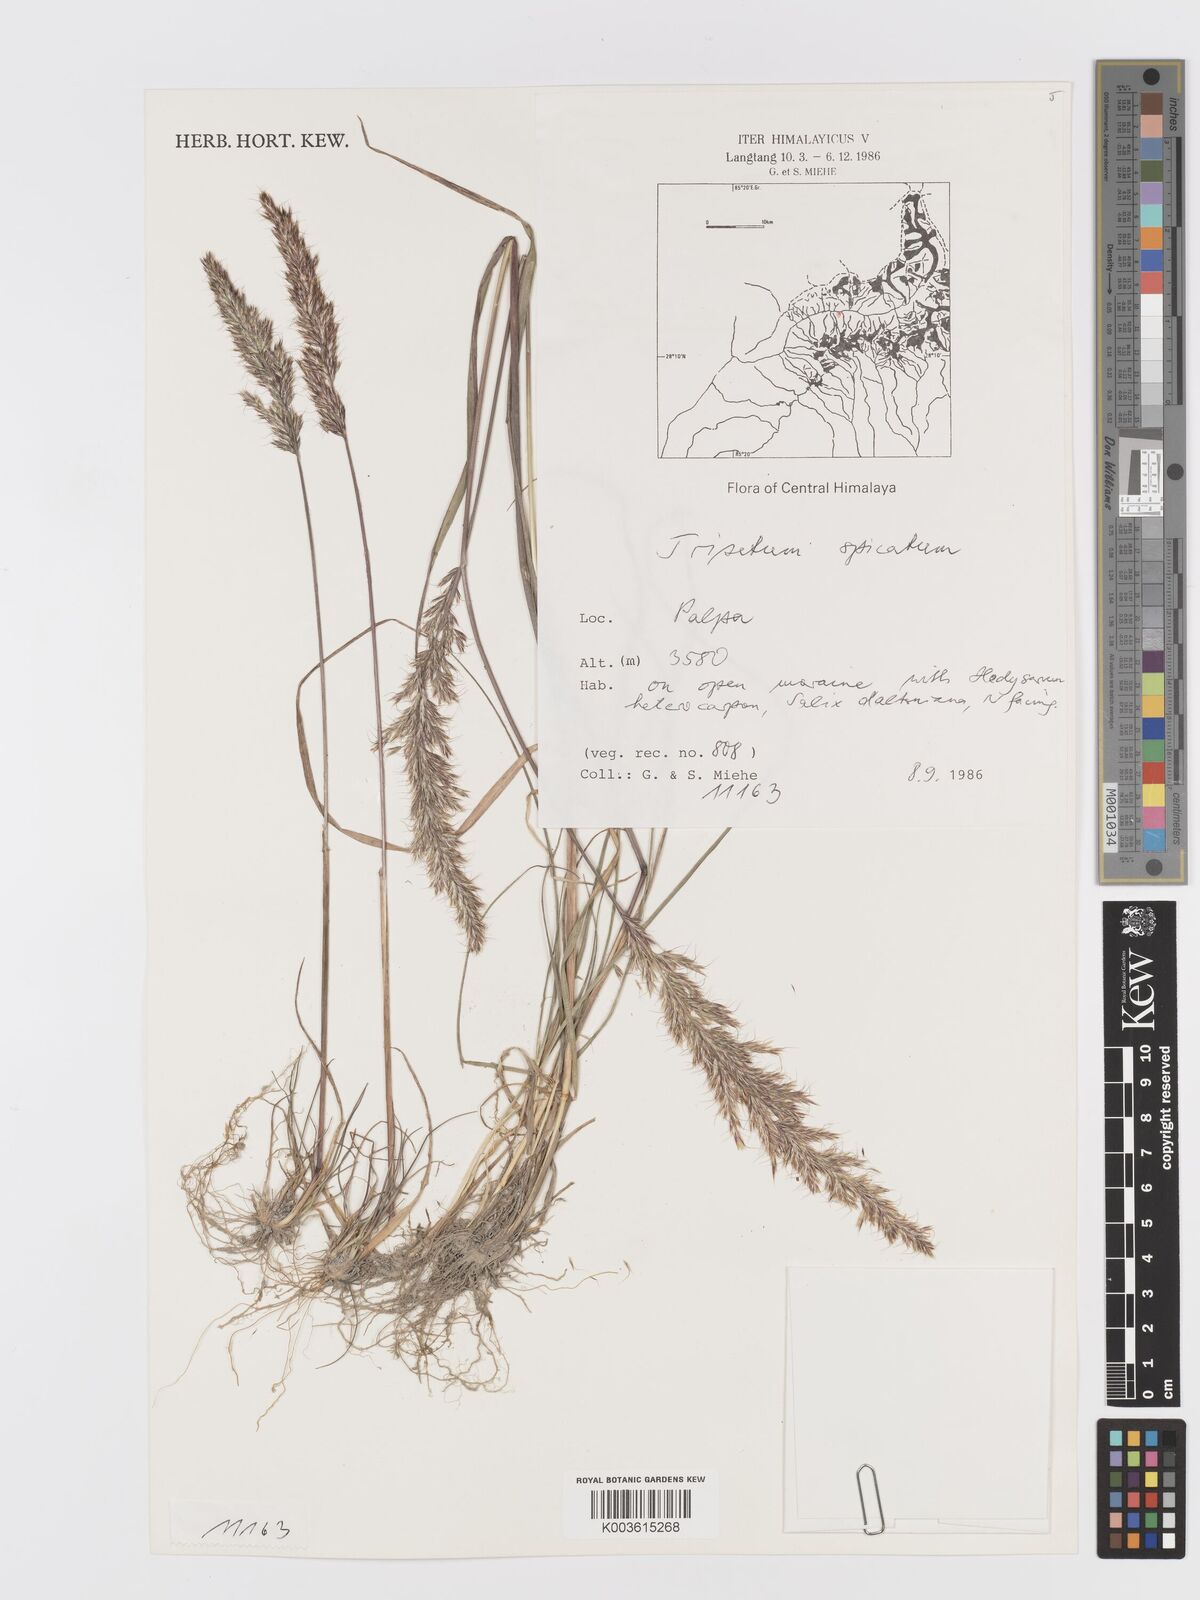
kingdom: Plantae
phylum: Tracheophyta
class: Liliopsida
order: Poales
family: Poaceae
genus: Koeleria
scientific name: Koeleria spicata
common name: Mountain trisetum
